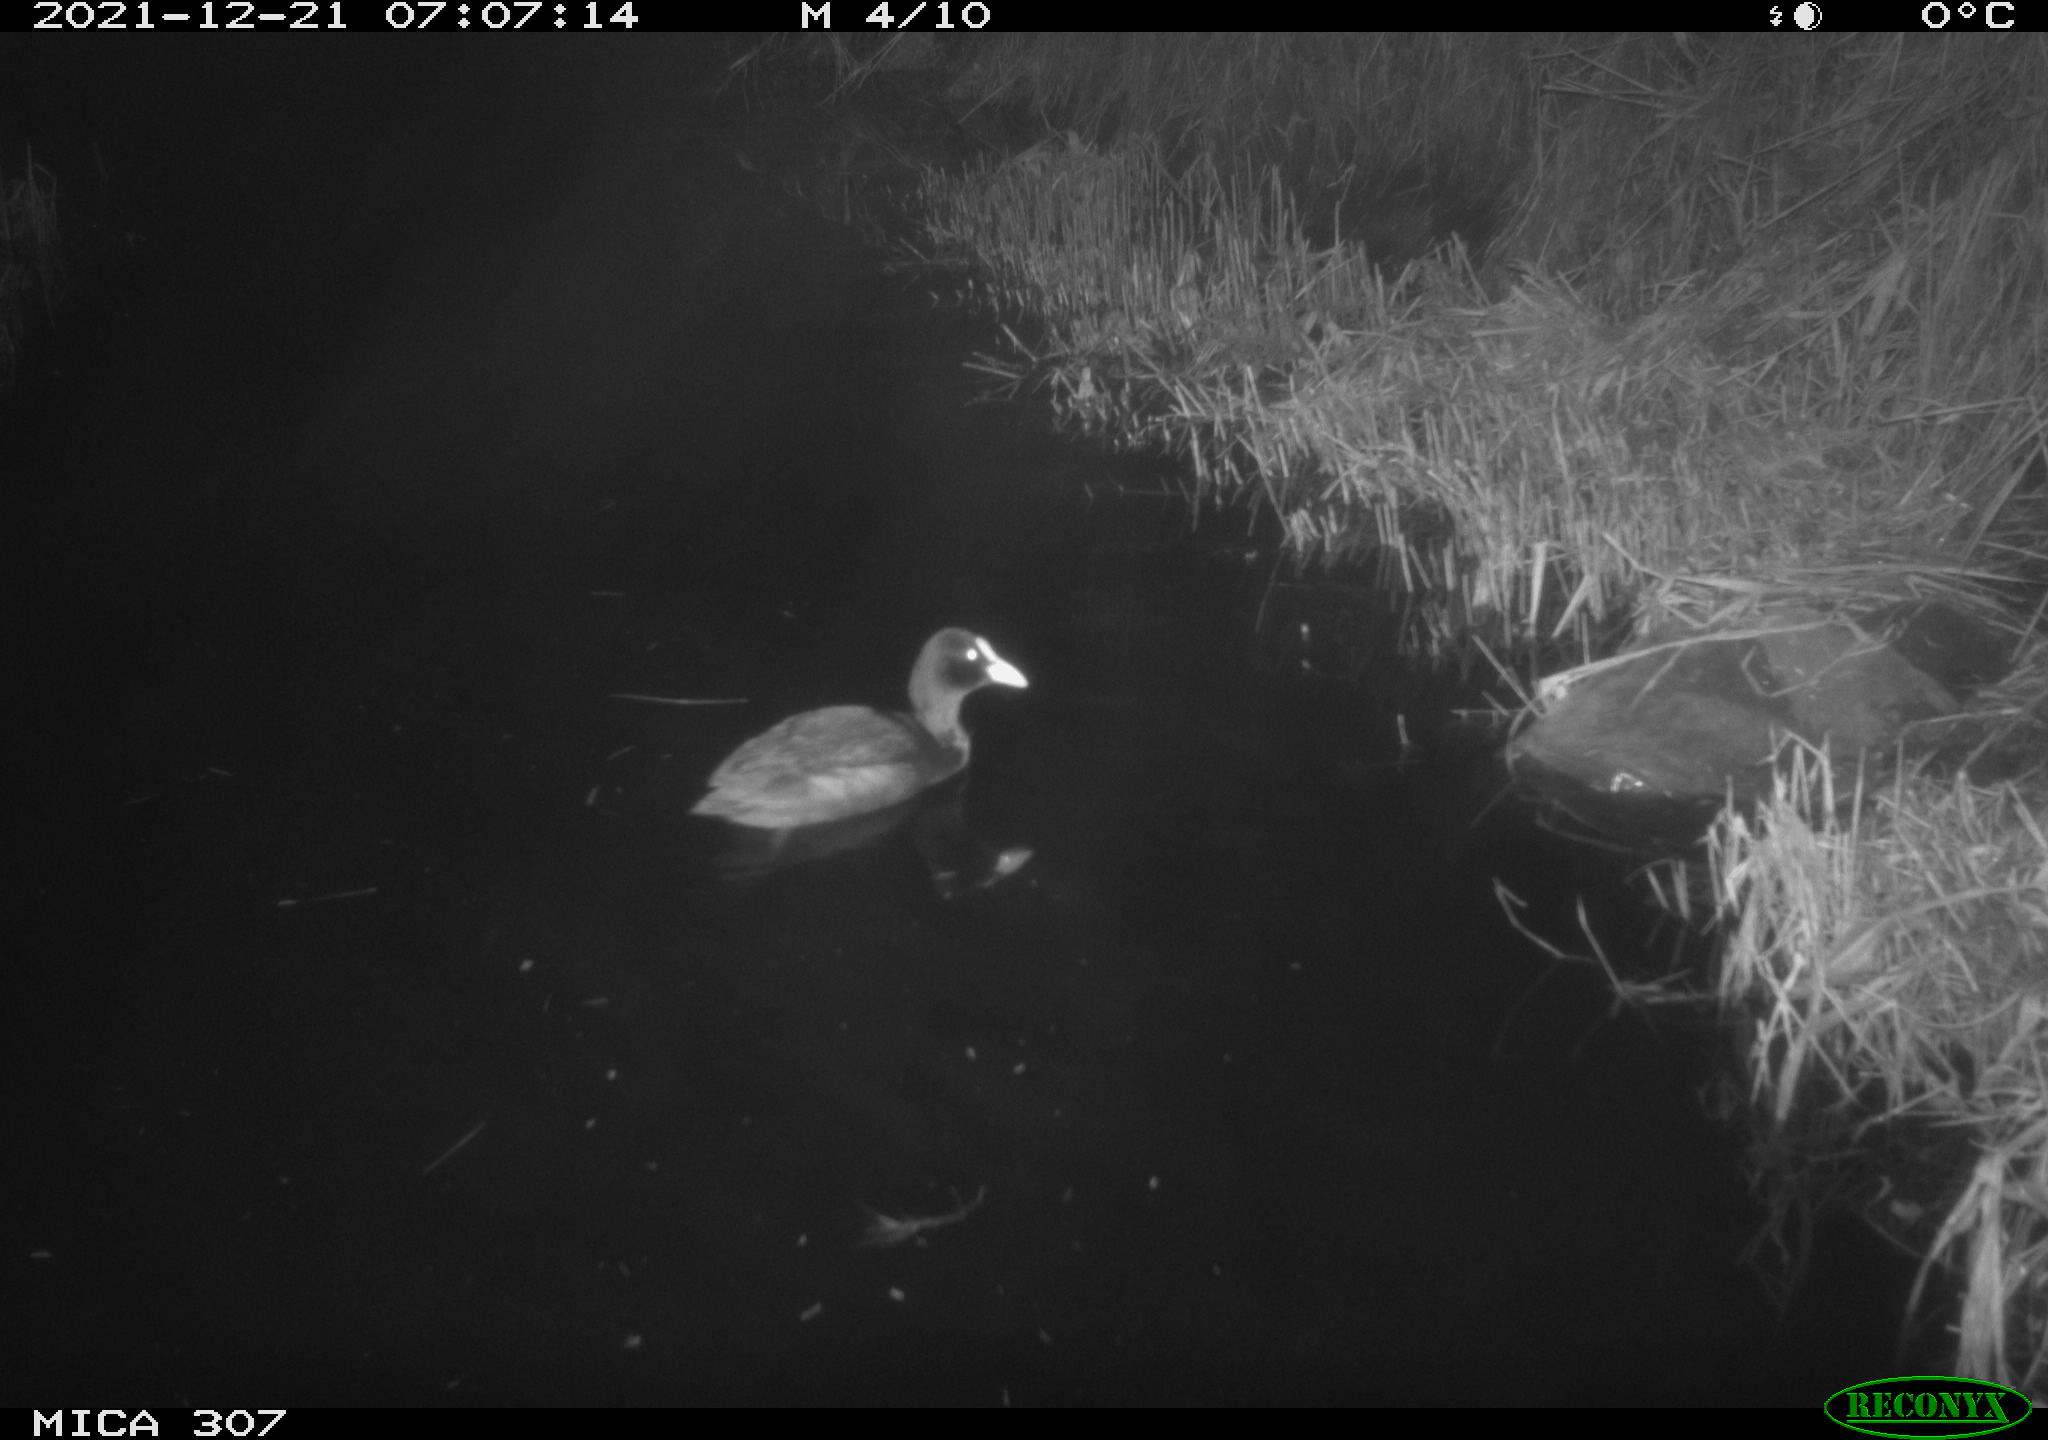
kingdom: Animalia
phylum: Chordata
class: Aves
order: Gruiformes
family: Rallidae
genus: Fulica
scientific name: Fulica atra
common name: Eurasian coot
